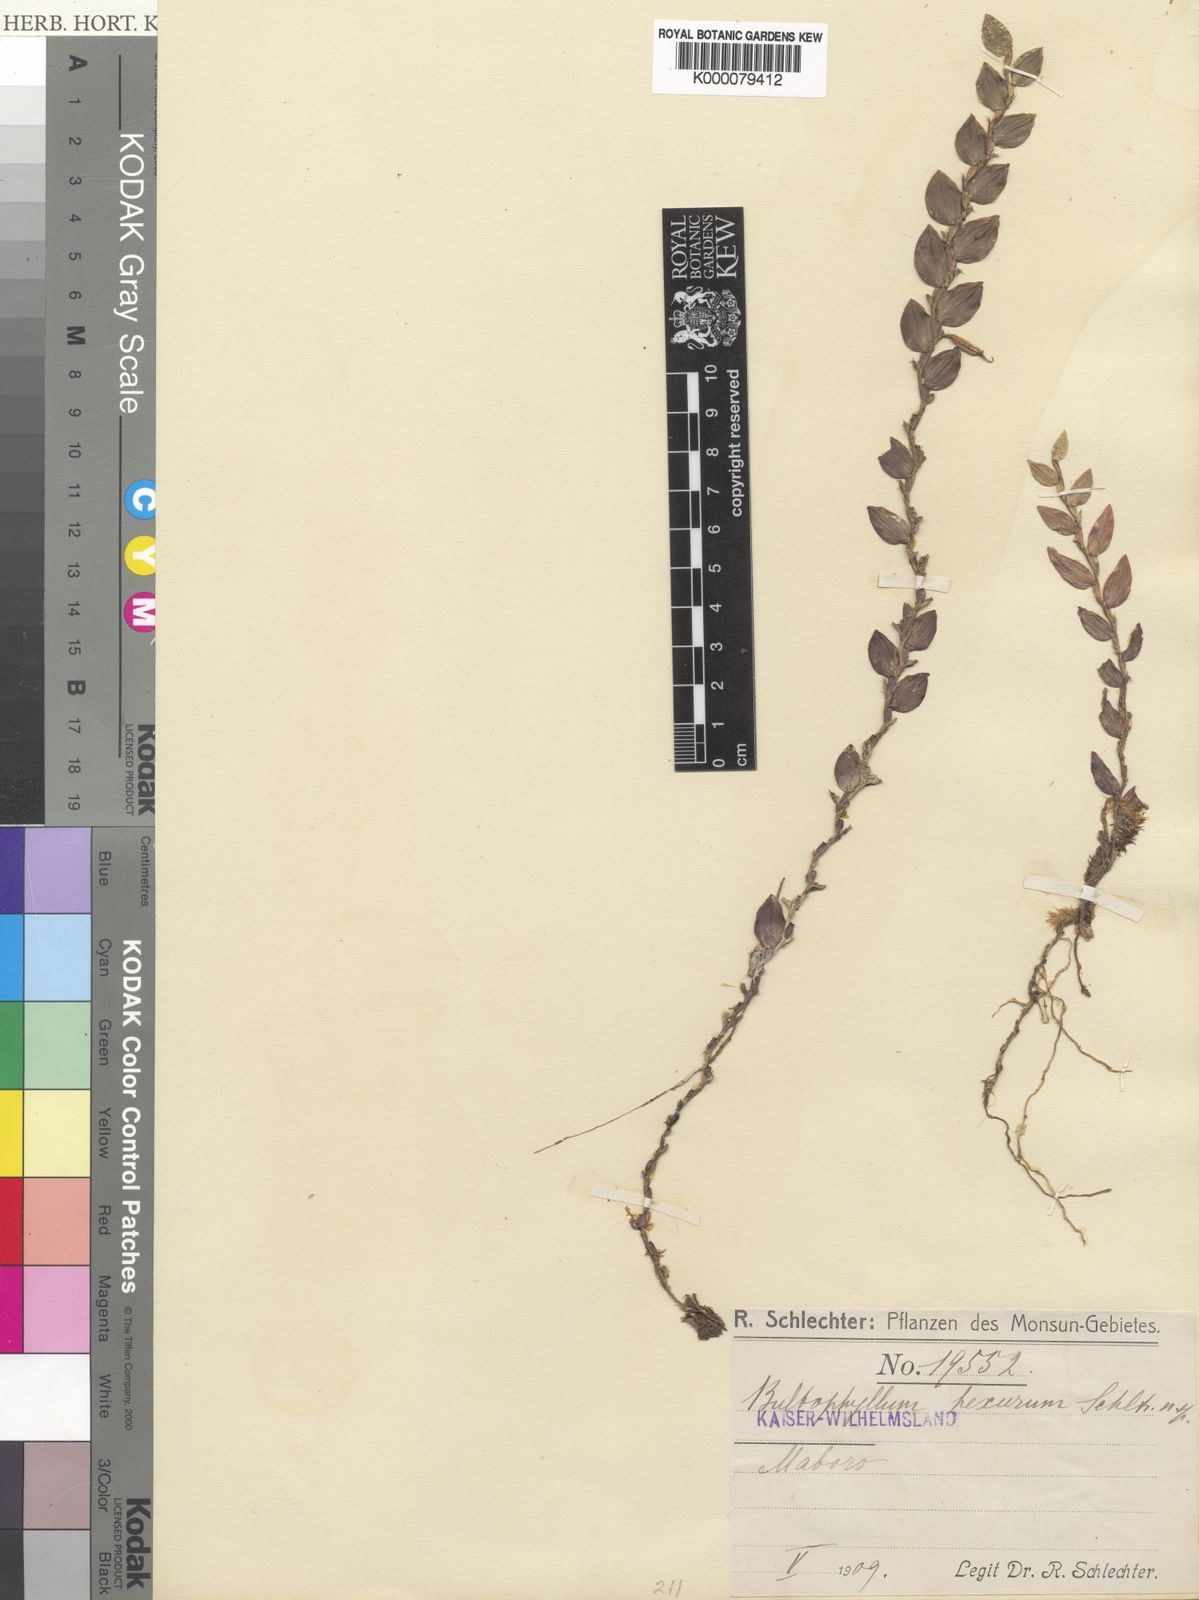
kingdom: Plantae
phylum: Tracheophyta
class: Liliopsida
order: Asparagales
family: Orchidaceae
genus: Bulbophyllum
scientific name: Bulbophyllum hexurum
